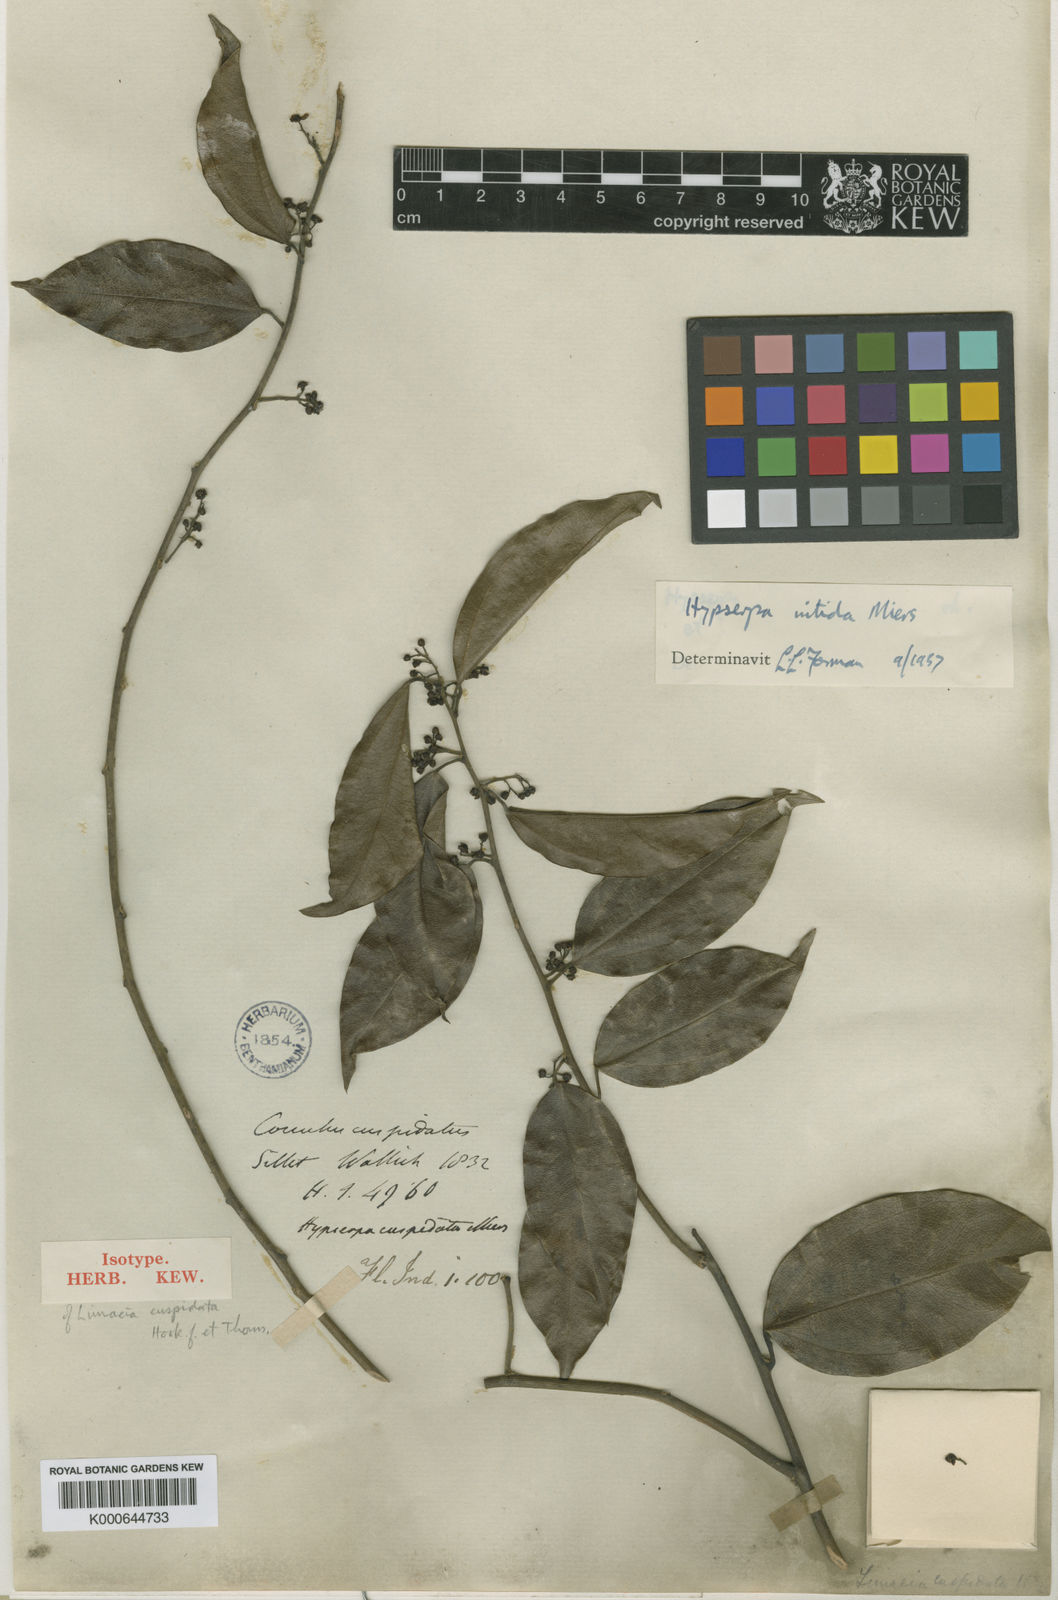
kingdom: Plantae
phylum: Tracheophyta
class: Magnoliopsida
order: Ranunculales
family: Menispermaceae
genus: Hypserpa
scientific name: Hypserpa
